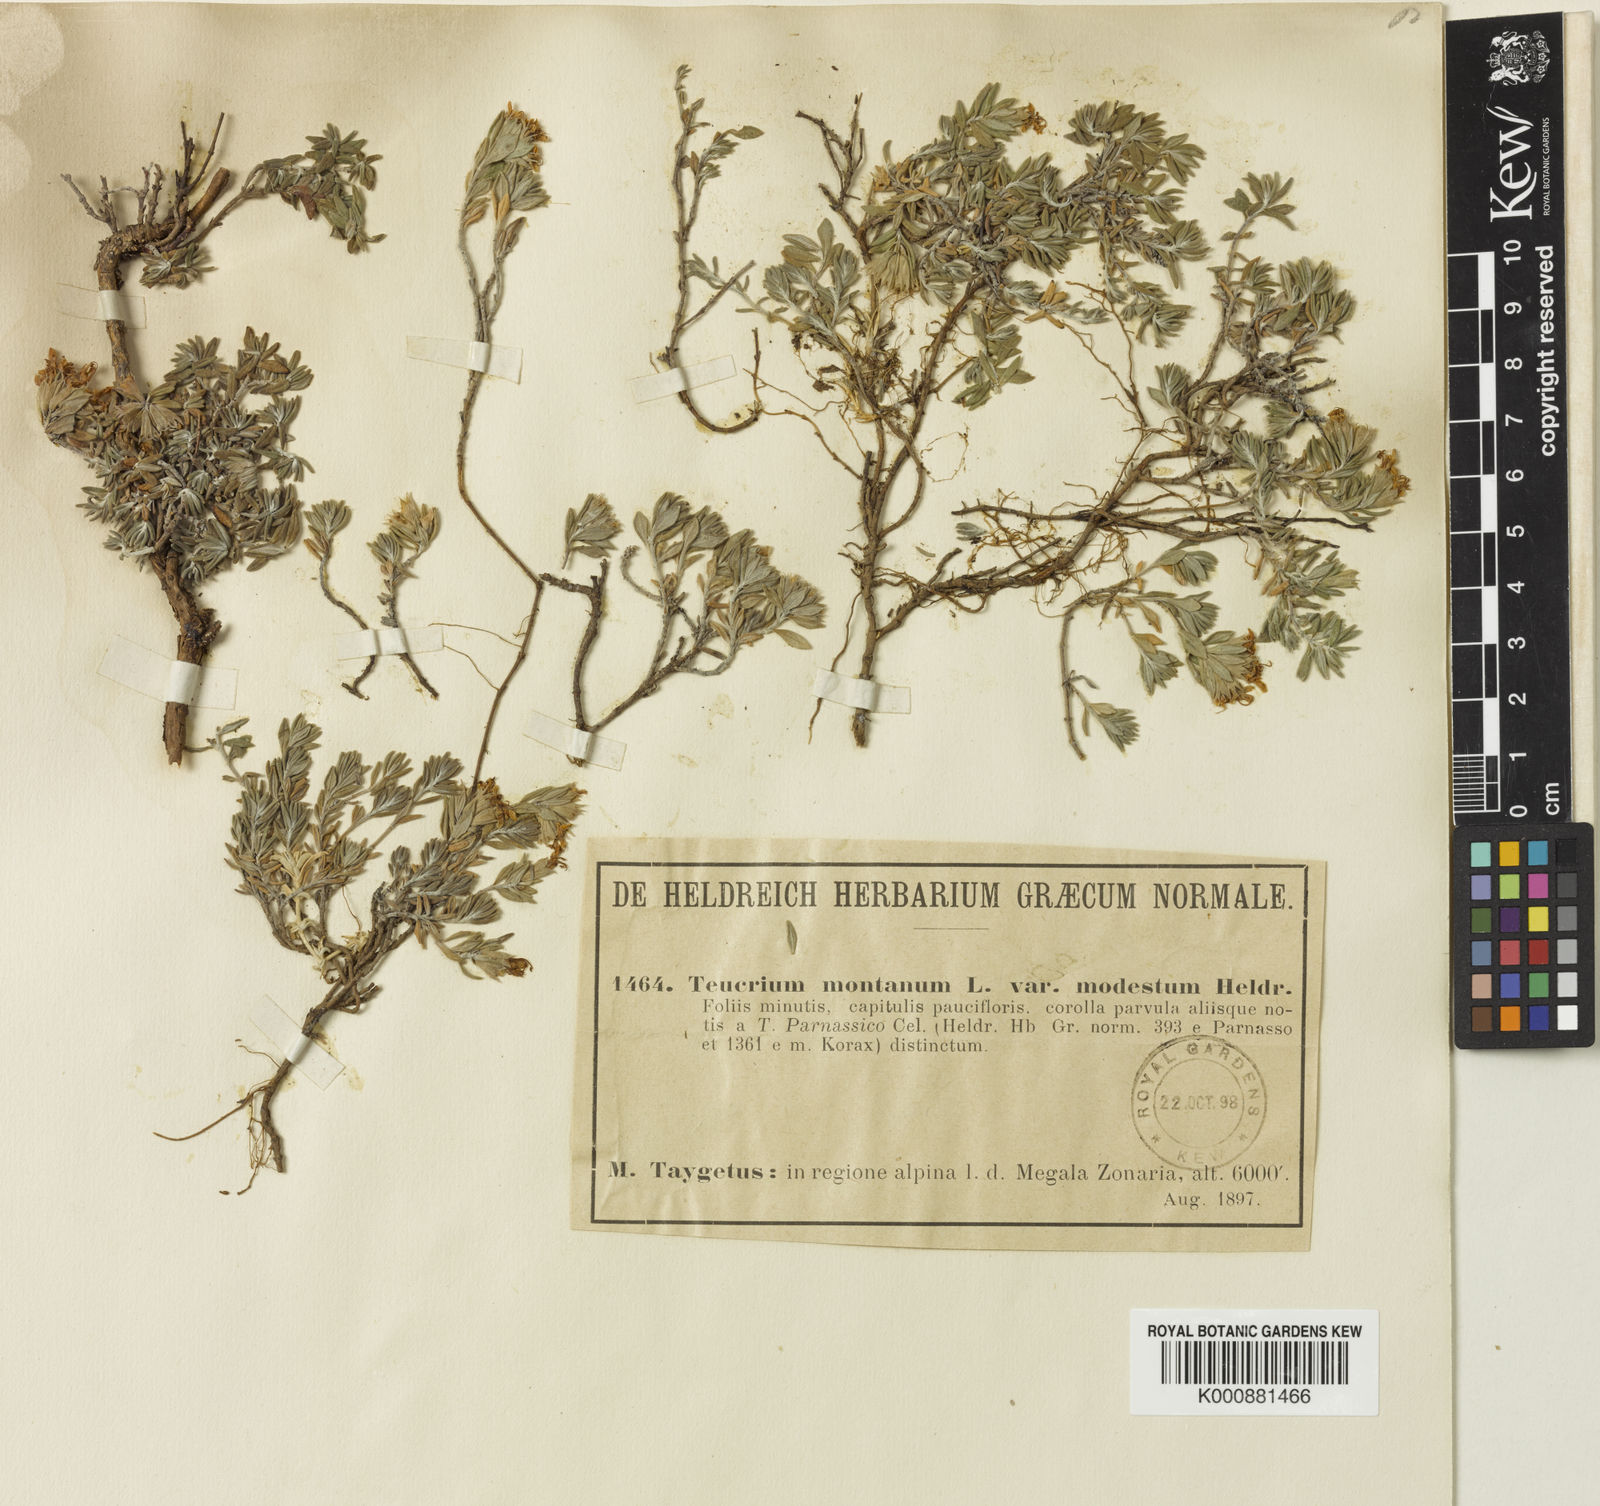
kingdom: Plantae
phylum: Tracheophyta
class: Magnoliopsida
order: Lamiales
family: Lamiaceae
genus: Teucrium
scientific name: Teucrium montanum
